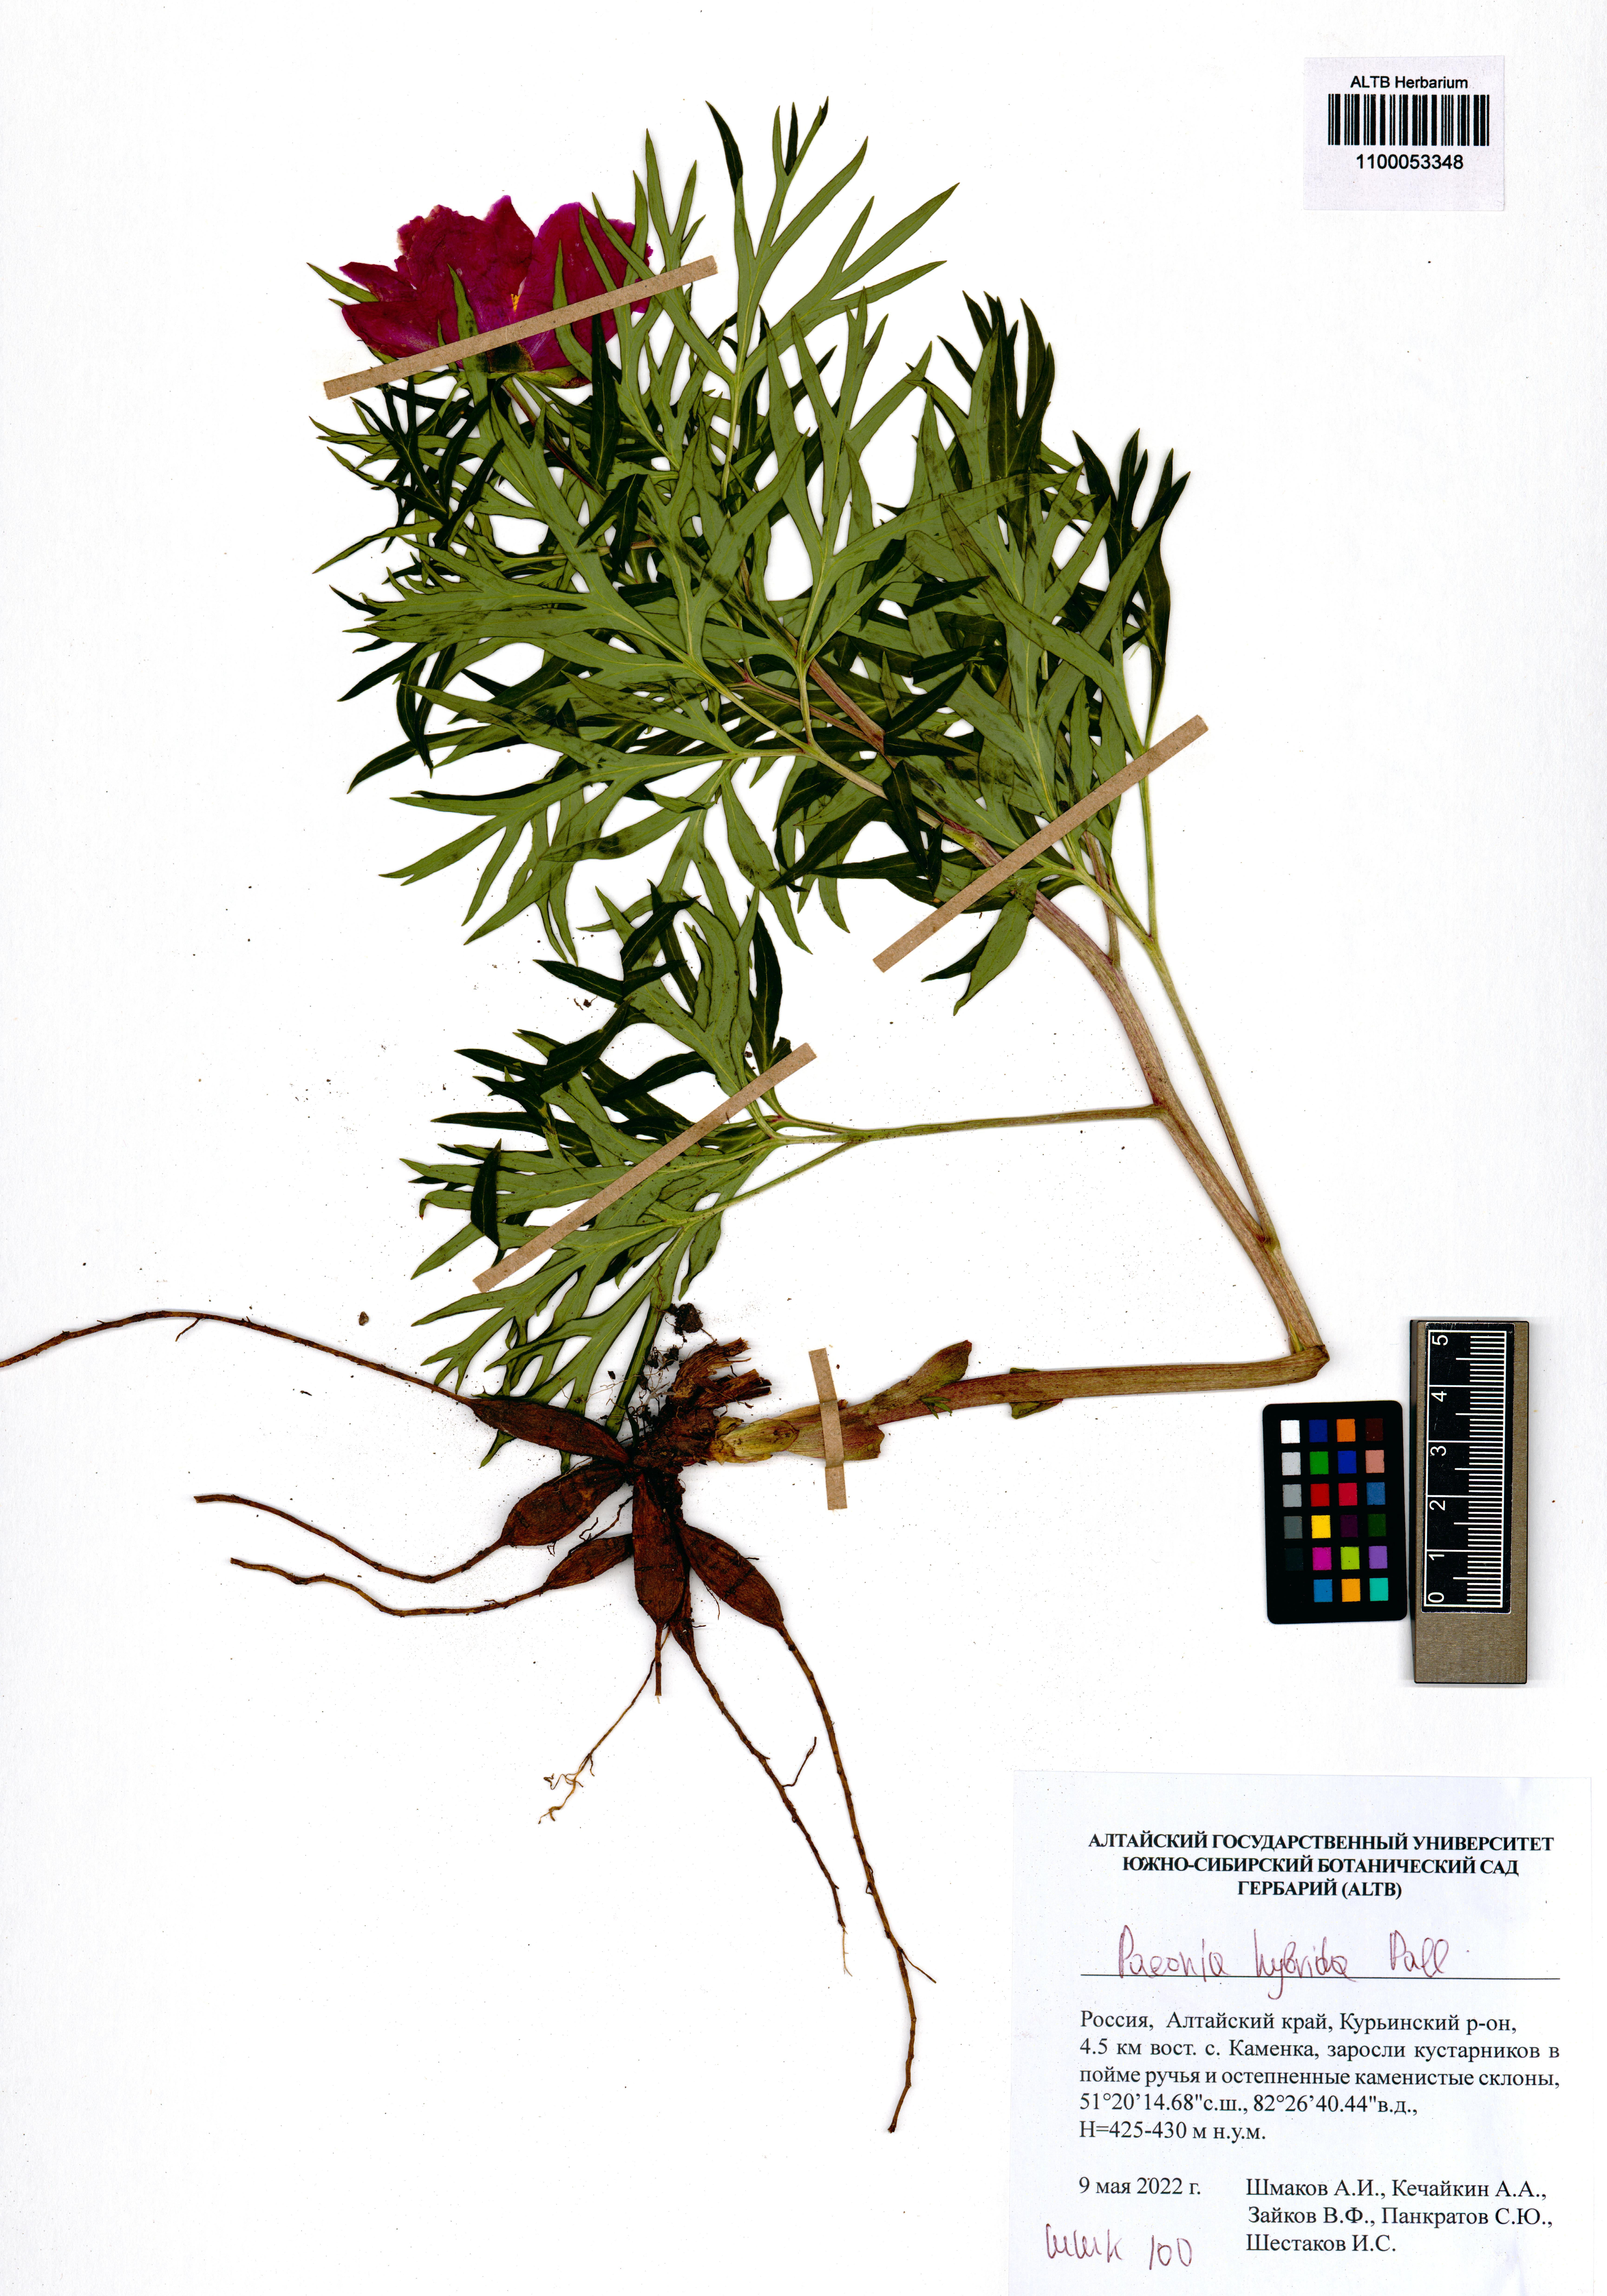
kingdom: Plantae
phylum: Tracheophyta
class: Magnoliopsida
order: Saxifragales
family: Paeoniaceae
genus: Paeonia
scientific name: Paeonia
